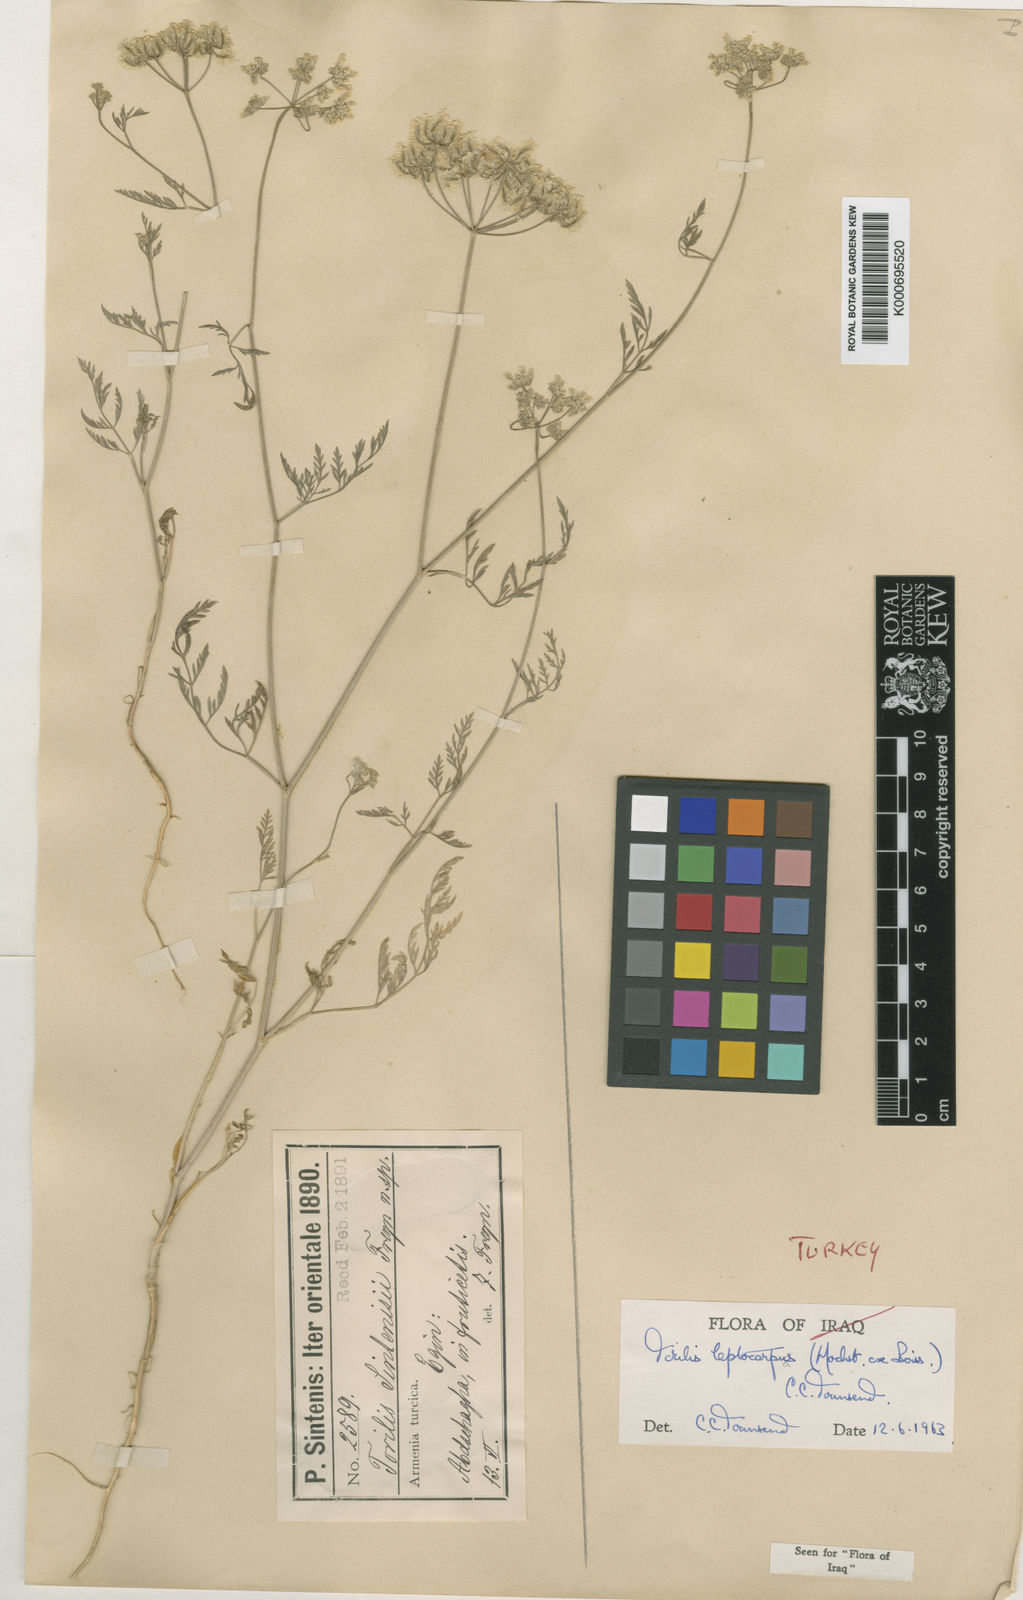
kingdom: Plantae
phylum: Tracheophyta
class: Magnoliopsida
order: Apiales
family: Apiaceae
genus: Torilis
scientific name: Torilis leptocarpa
